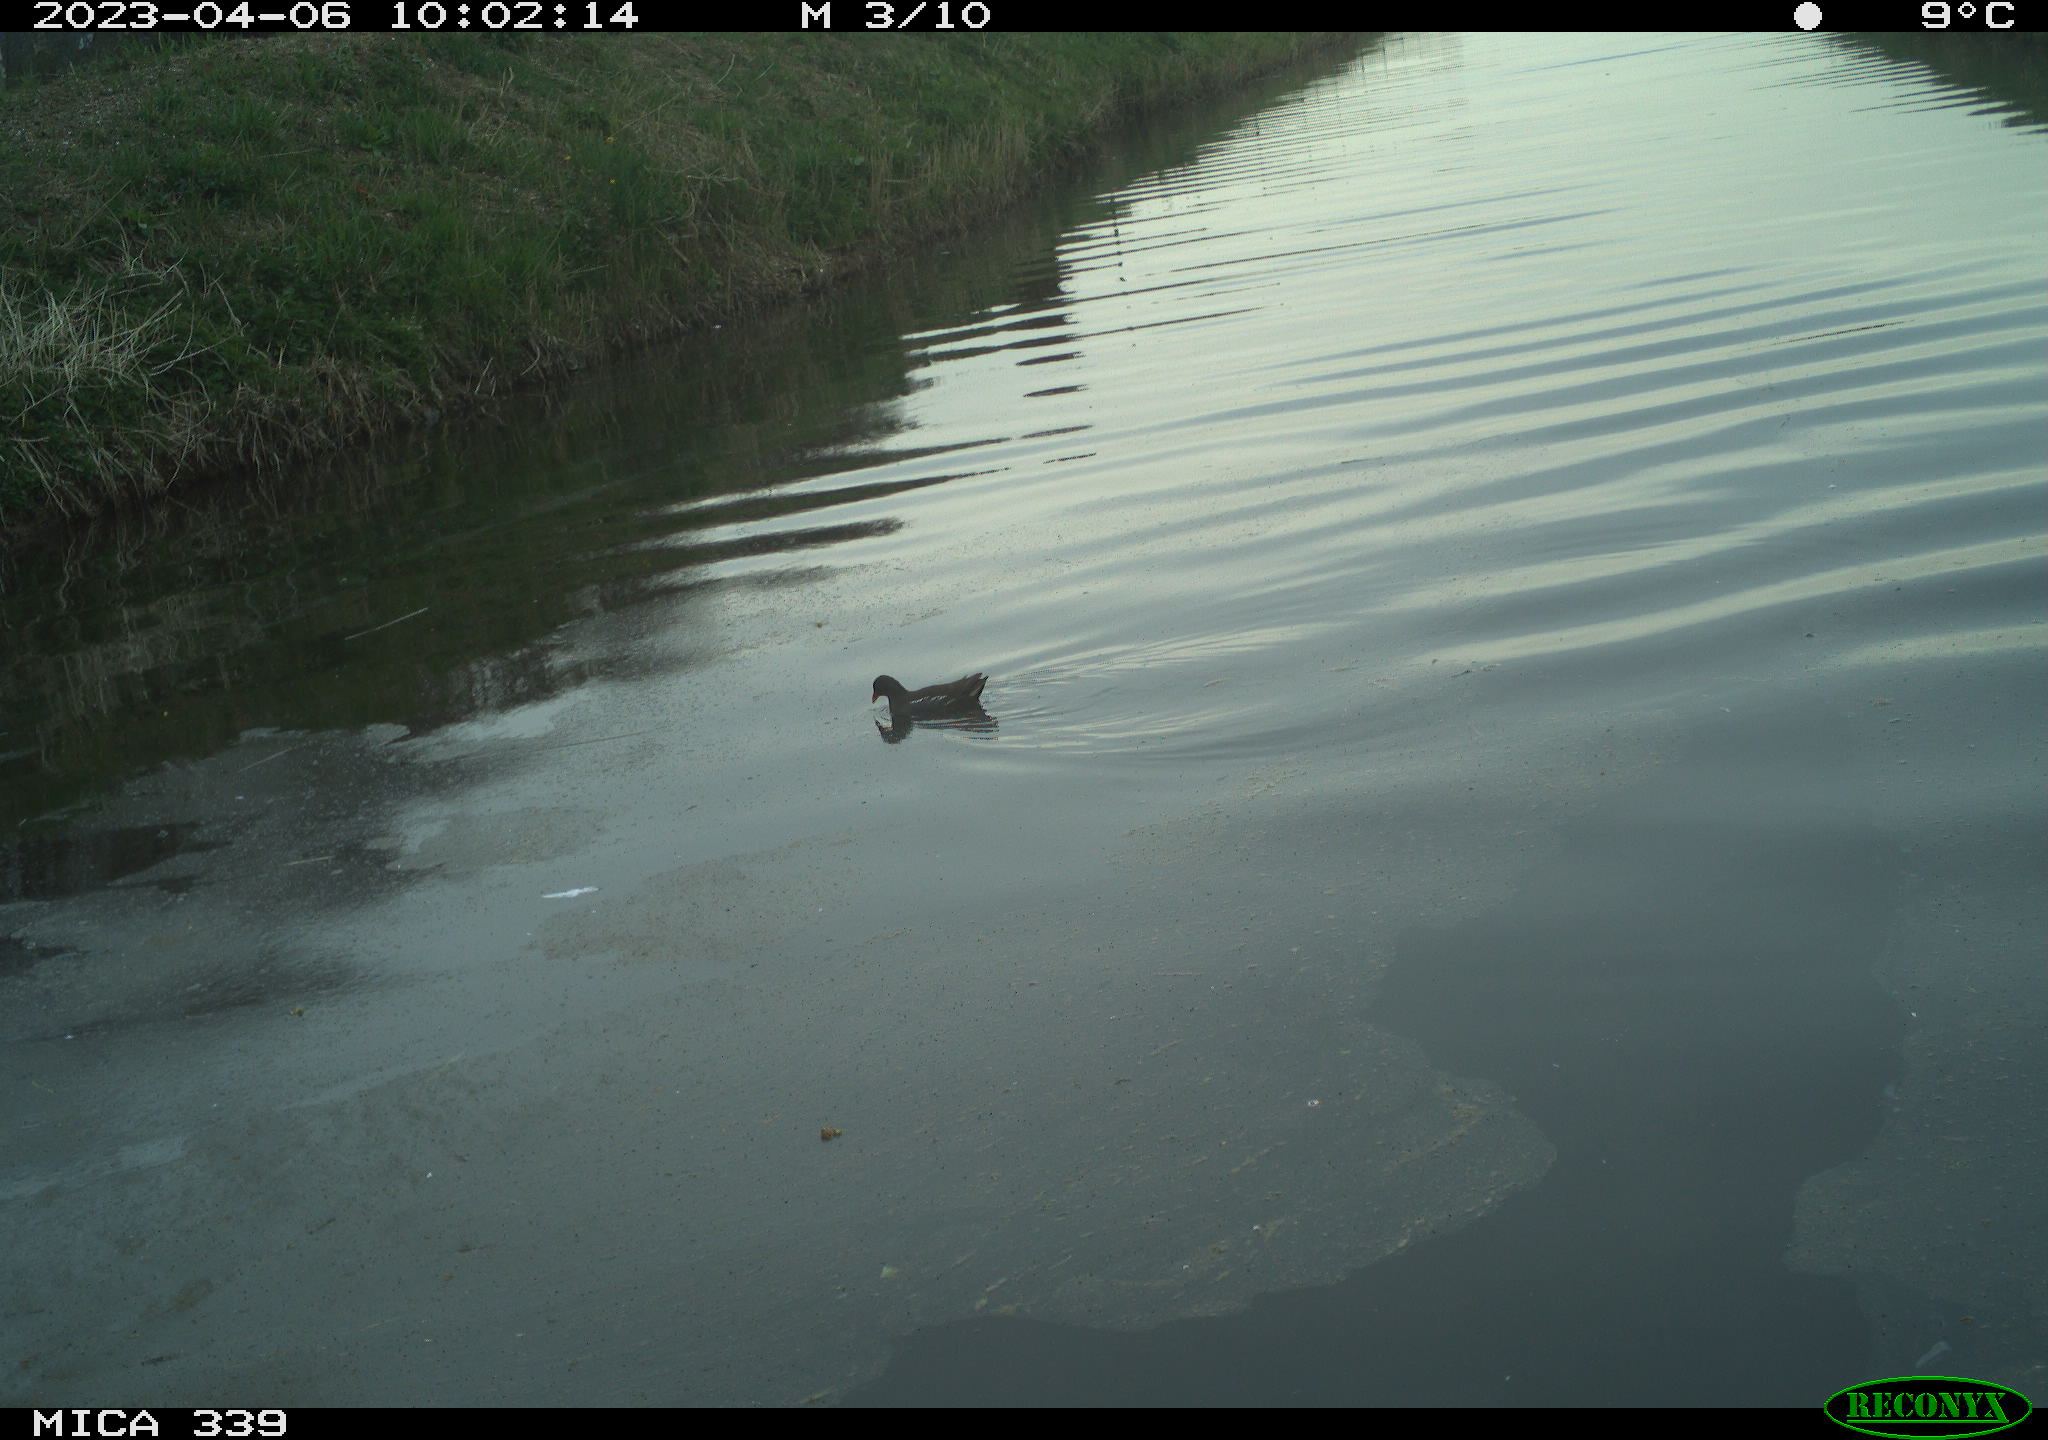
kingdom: Animalia
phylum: Chordata
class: Aves
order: Gruiformes
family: Rallidae
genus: Gallinula
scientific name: Gallinula chloropus
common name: Common moorhen
